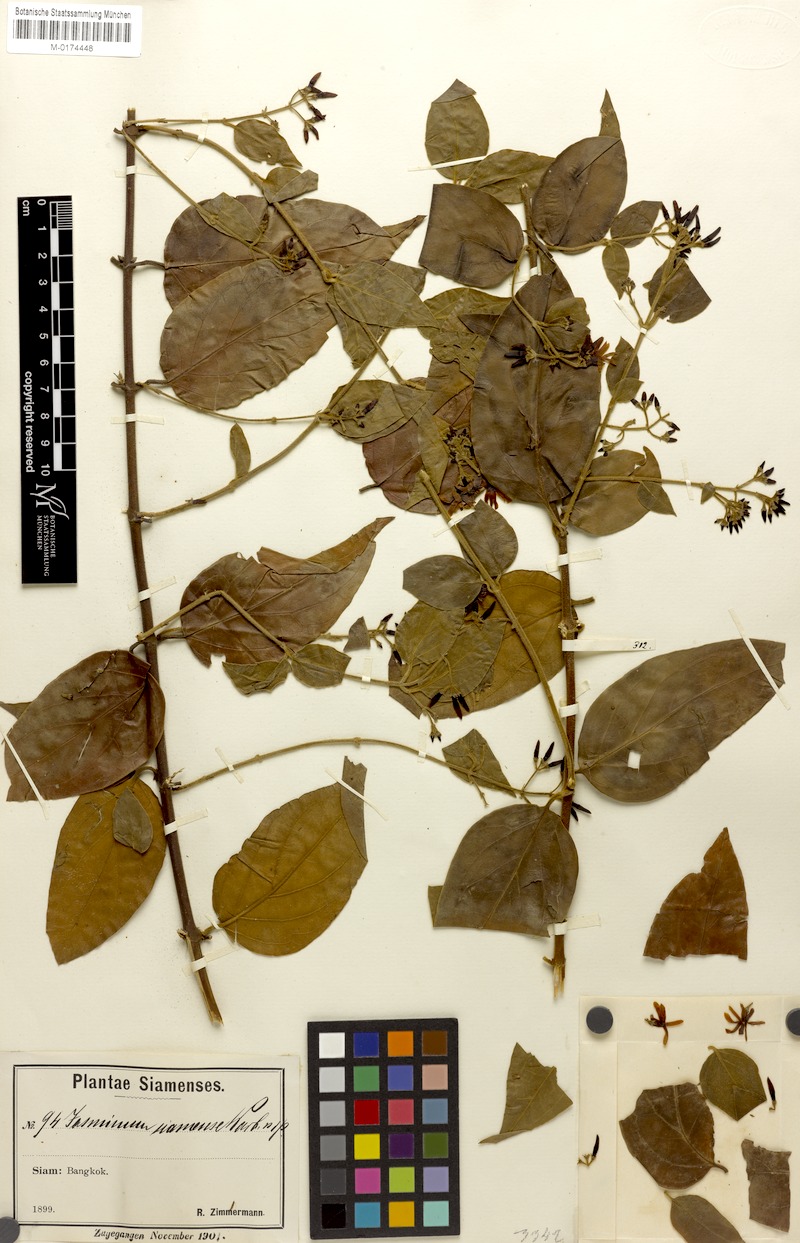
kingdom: Plantae
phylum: Tracheophyta
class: Magnoliopsida
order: Lamiales
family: Oleaceae
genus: Jasminum
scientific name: Jasminum siamense
